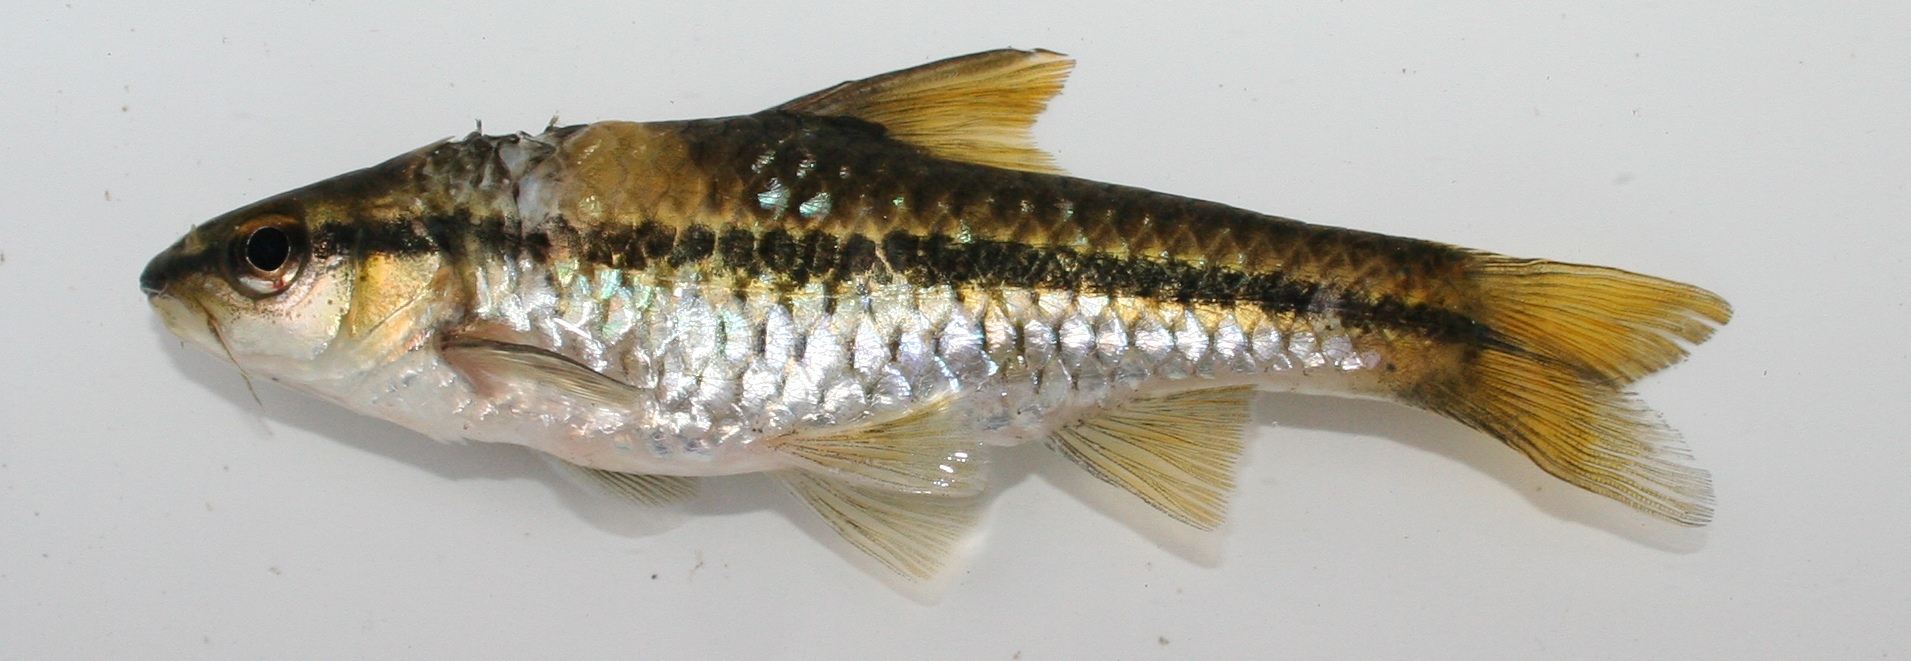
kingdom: Animalia
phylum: Chordata
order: Cypriniformes
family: Cyprinidae
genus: Enteromius
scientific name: Enteromius eutaenia
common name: Orangefin barb
